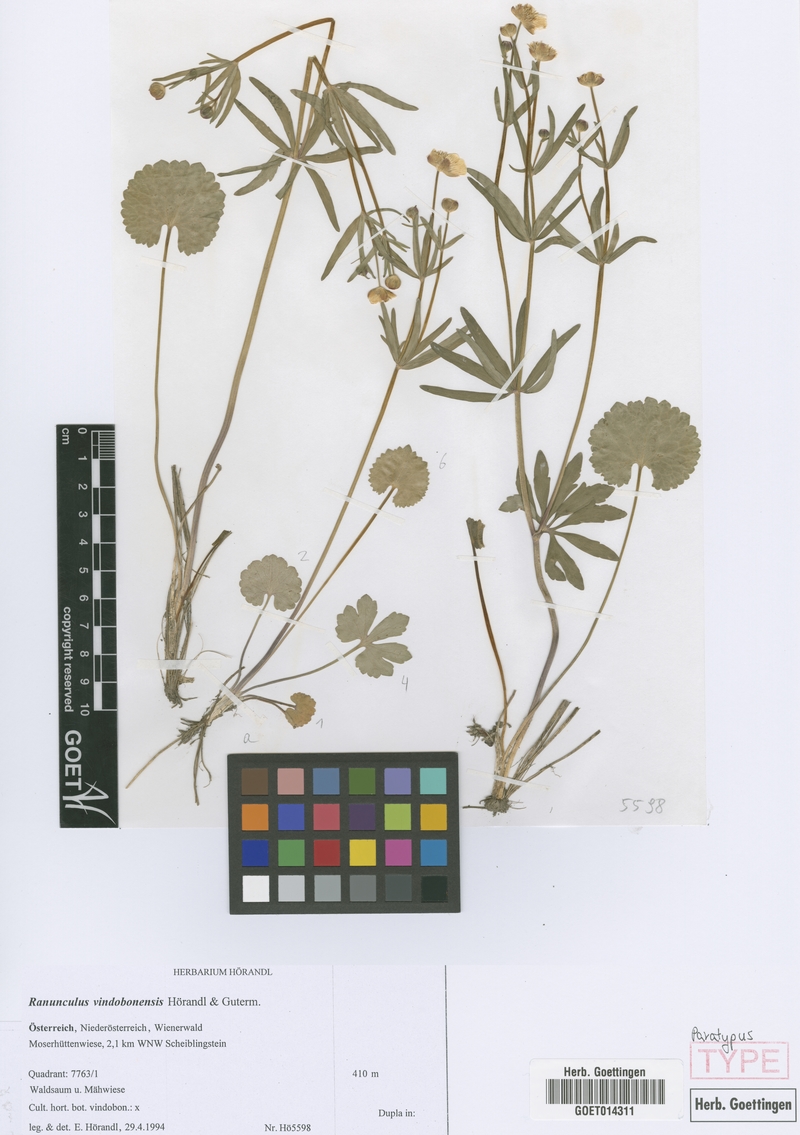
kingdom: Plantae
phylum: Tracheophyta
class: Magnoliopsida
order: Ranunculales
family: Ranunculaceae
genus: Ranunculus
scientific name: Ranunculus vindobonensis
